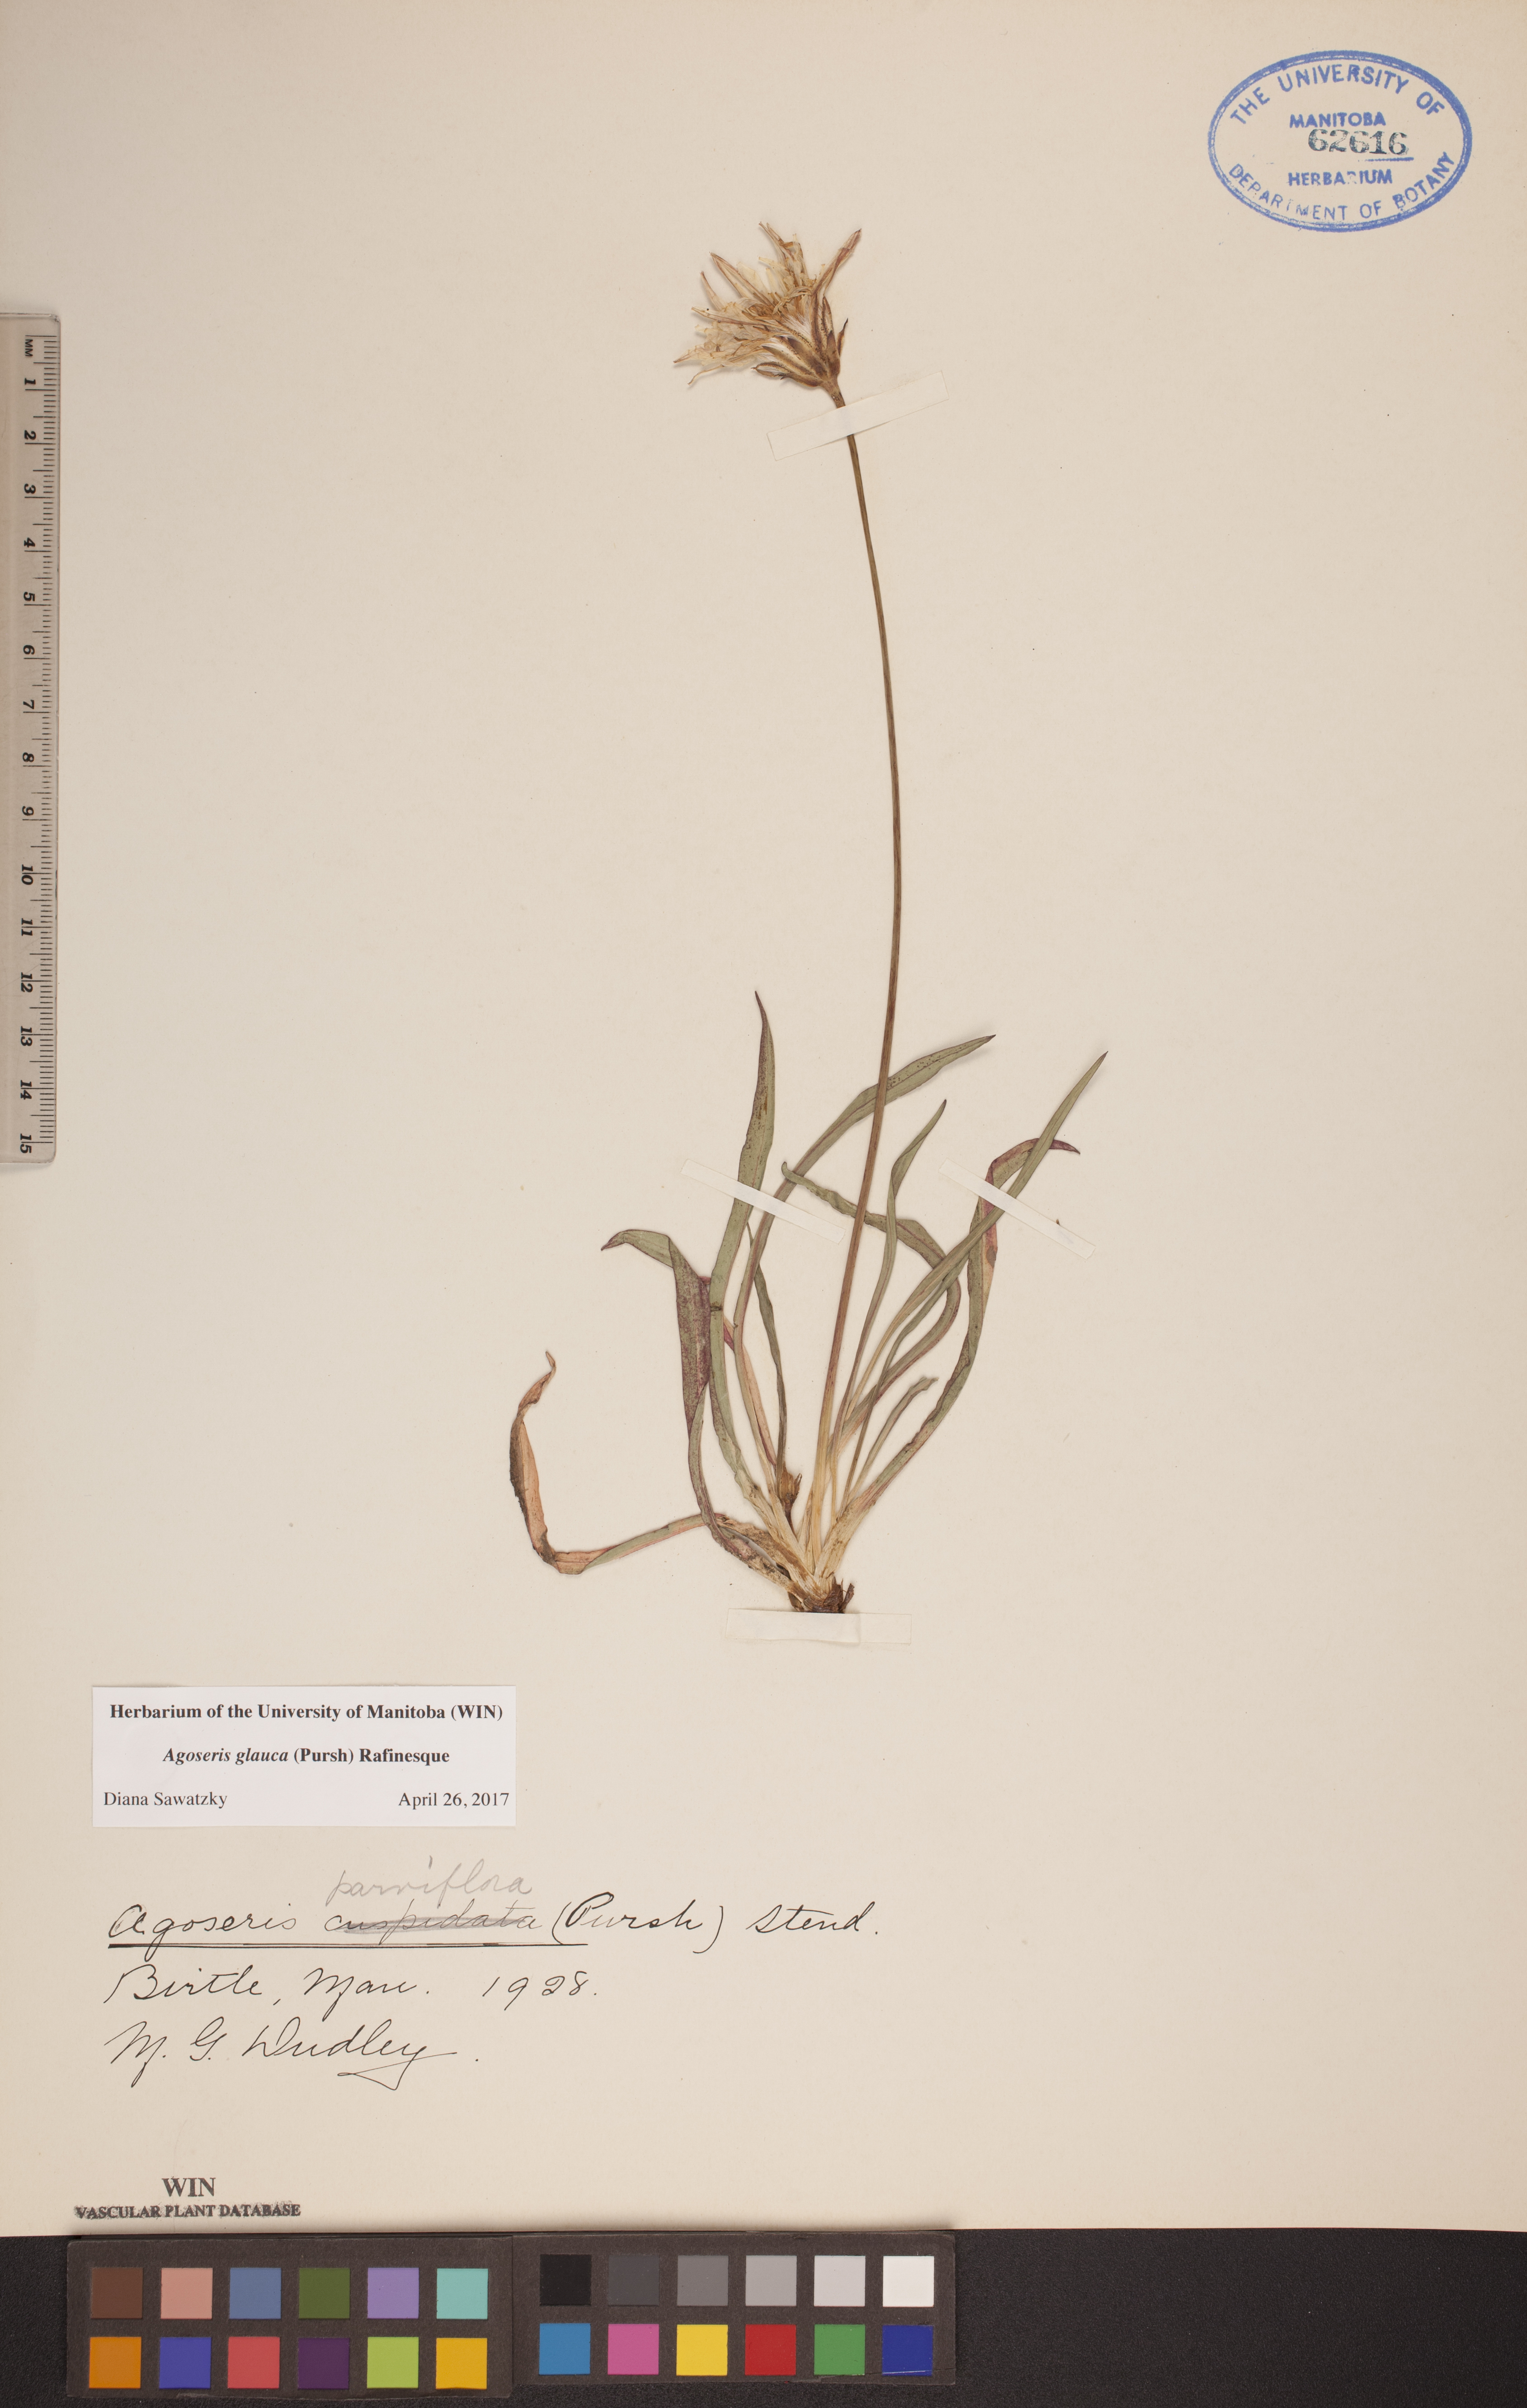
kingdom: Plantae
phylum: Tracheophyta
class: Magnoliopsida
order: Asterales
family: Asteraceae
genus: Agoseris
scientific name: Agoseris glauca
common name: Prairie agoseris
